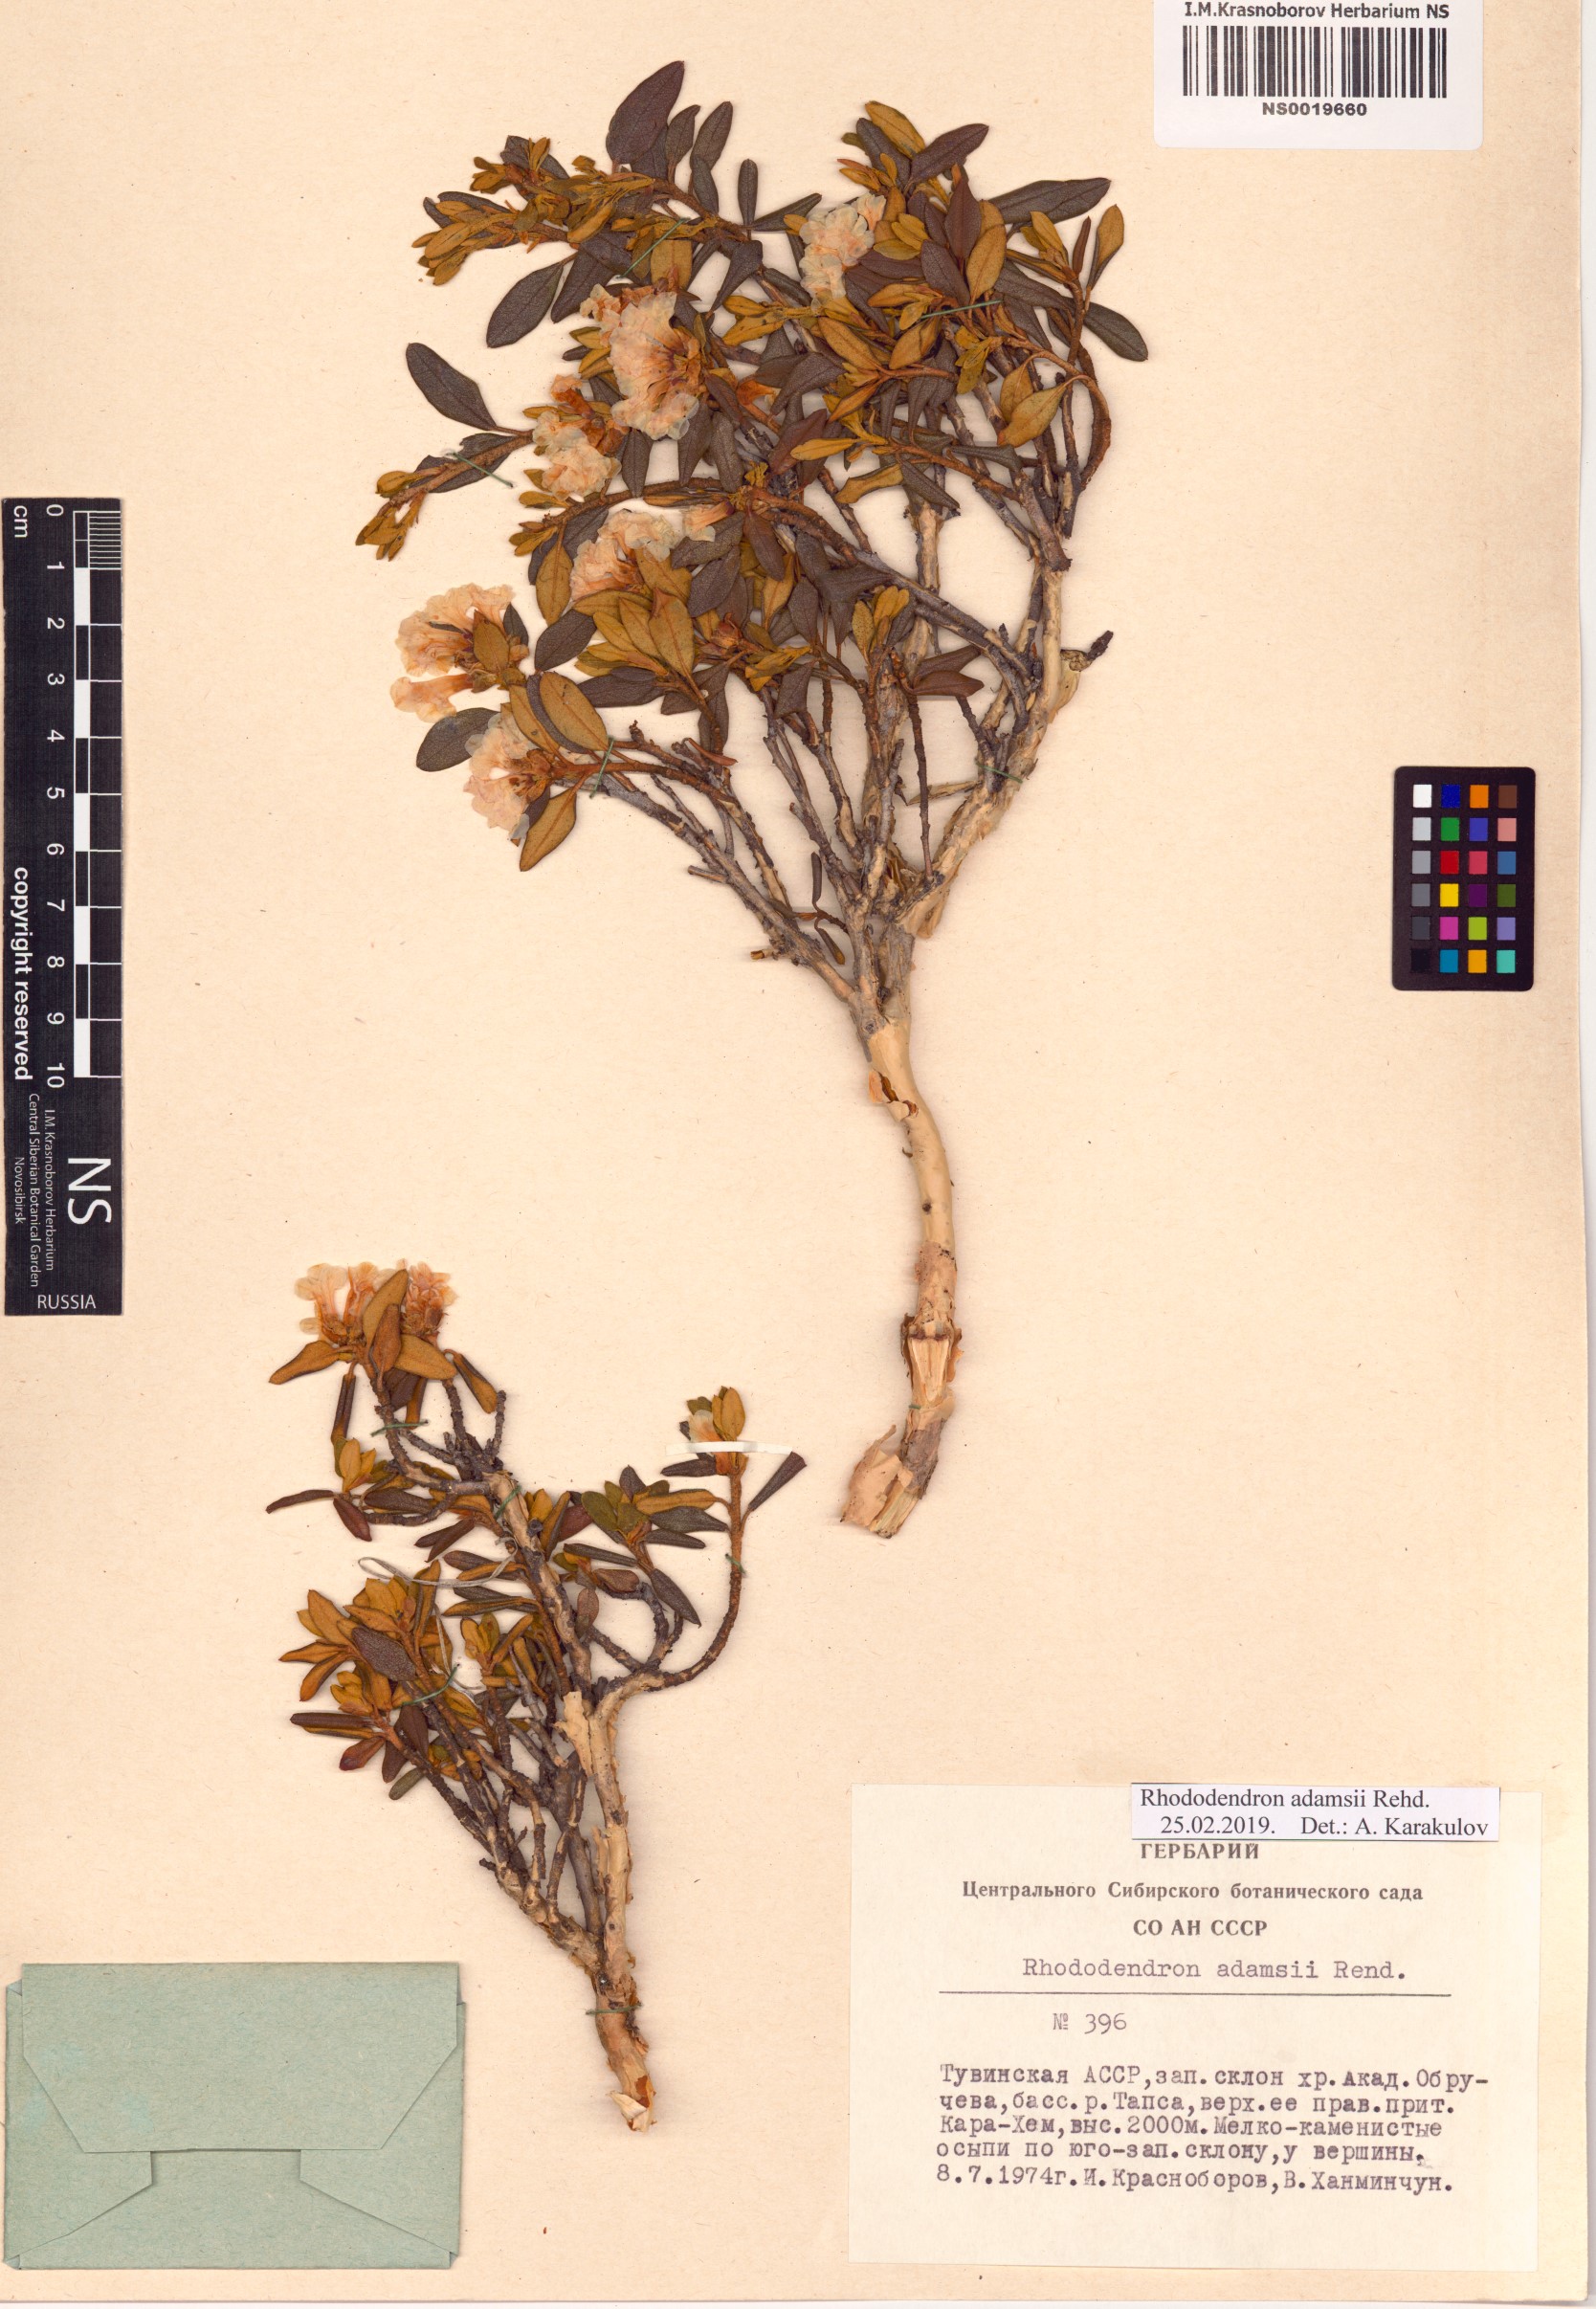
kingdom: Plantae
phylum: Tracheophyta
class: Magnoliopsida
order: Ericales
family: Ericaceae
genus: Rhododendron
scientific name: Rhododendron adamsii
